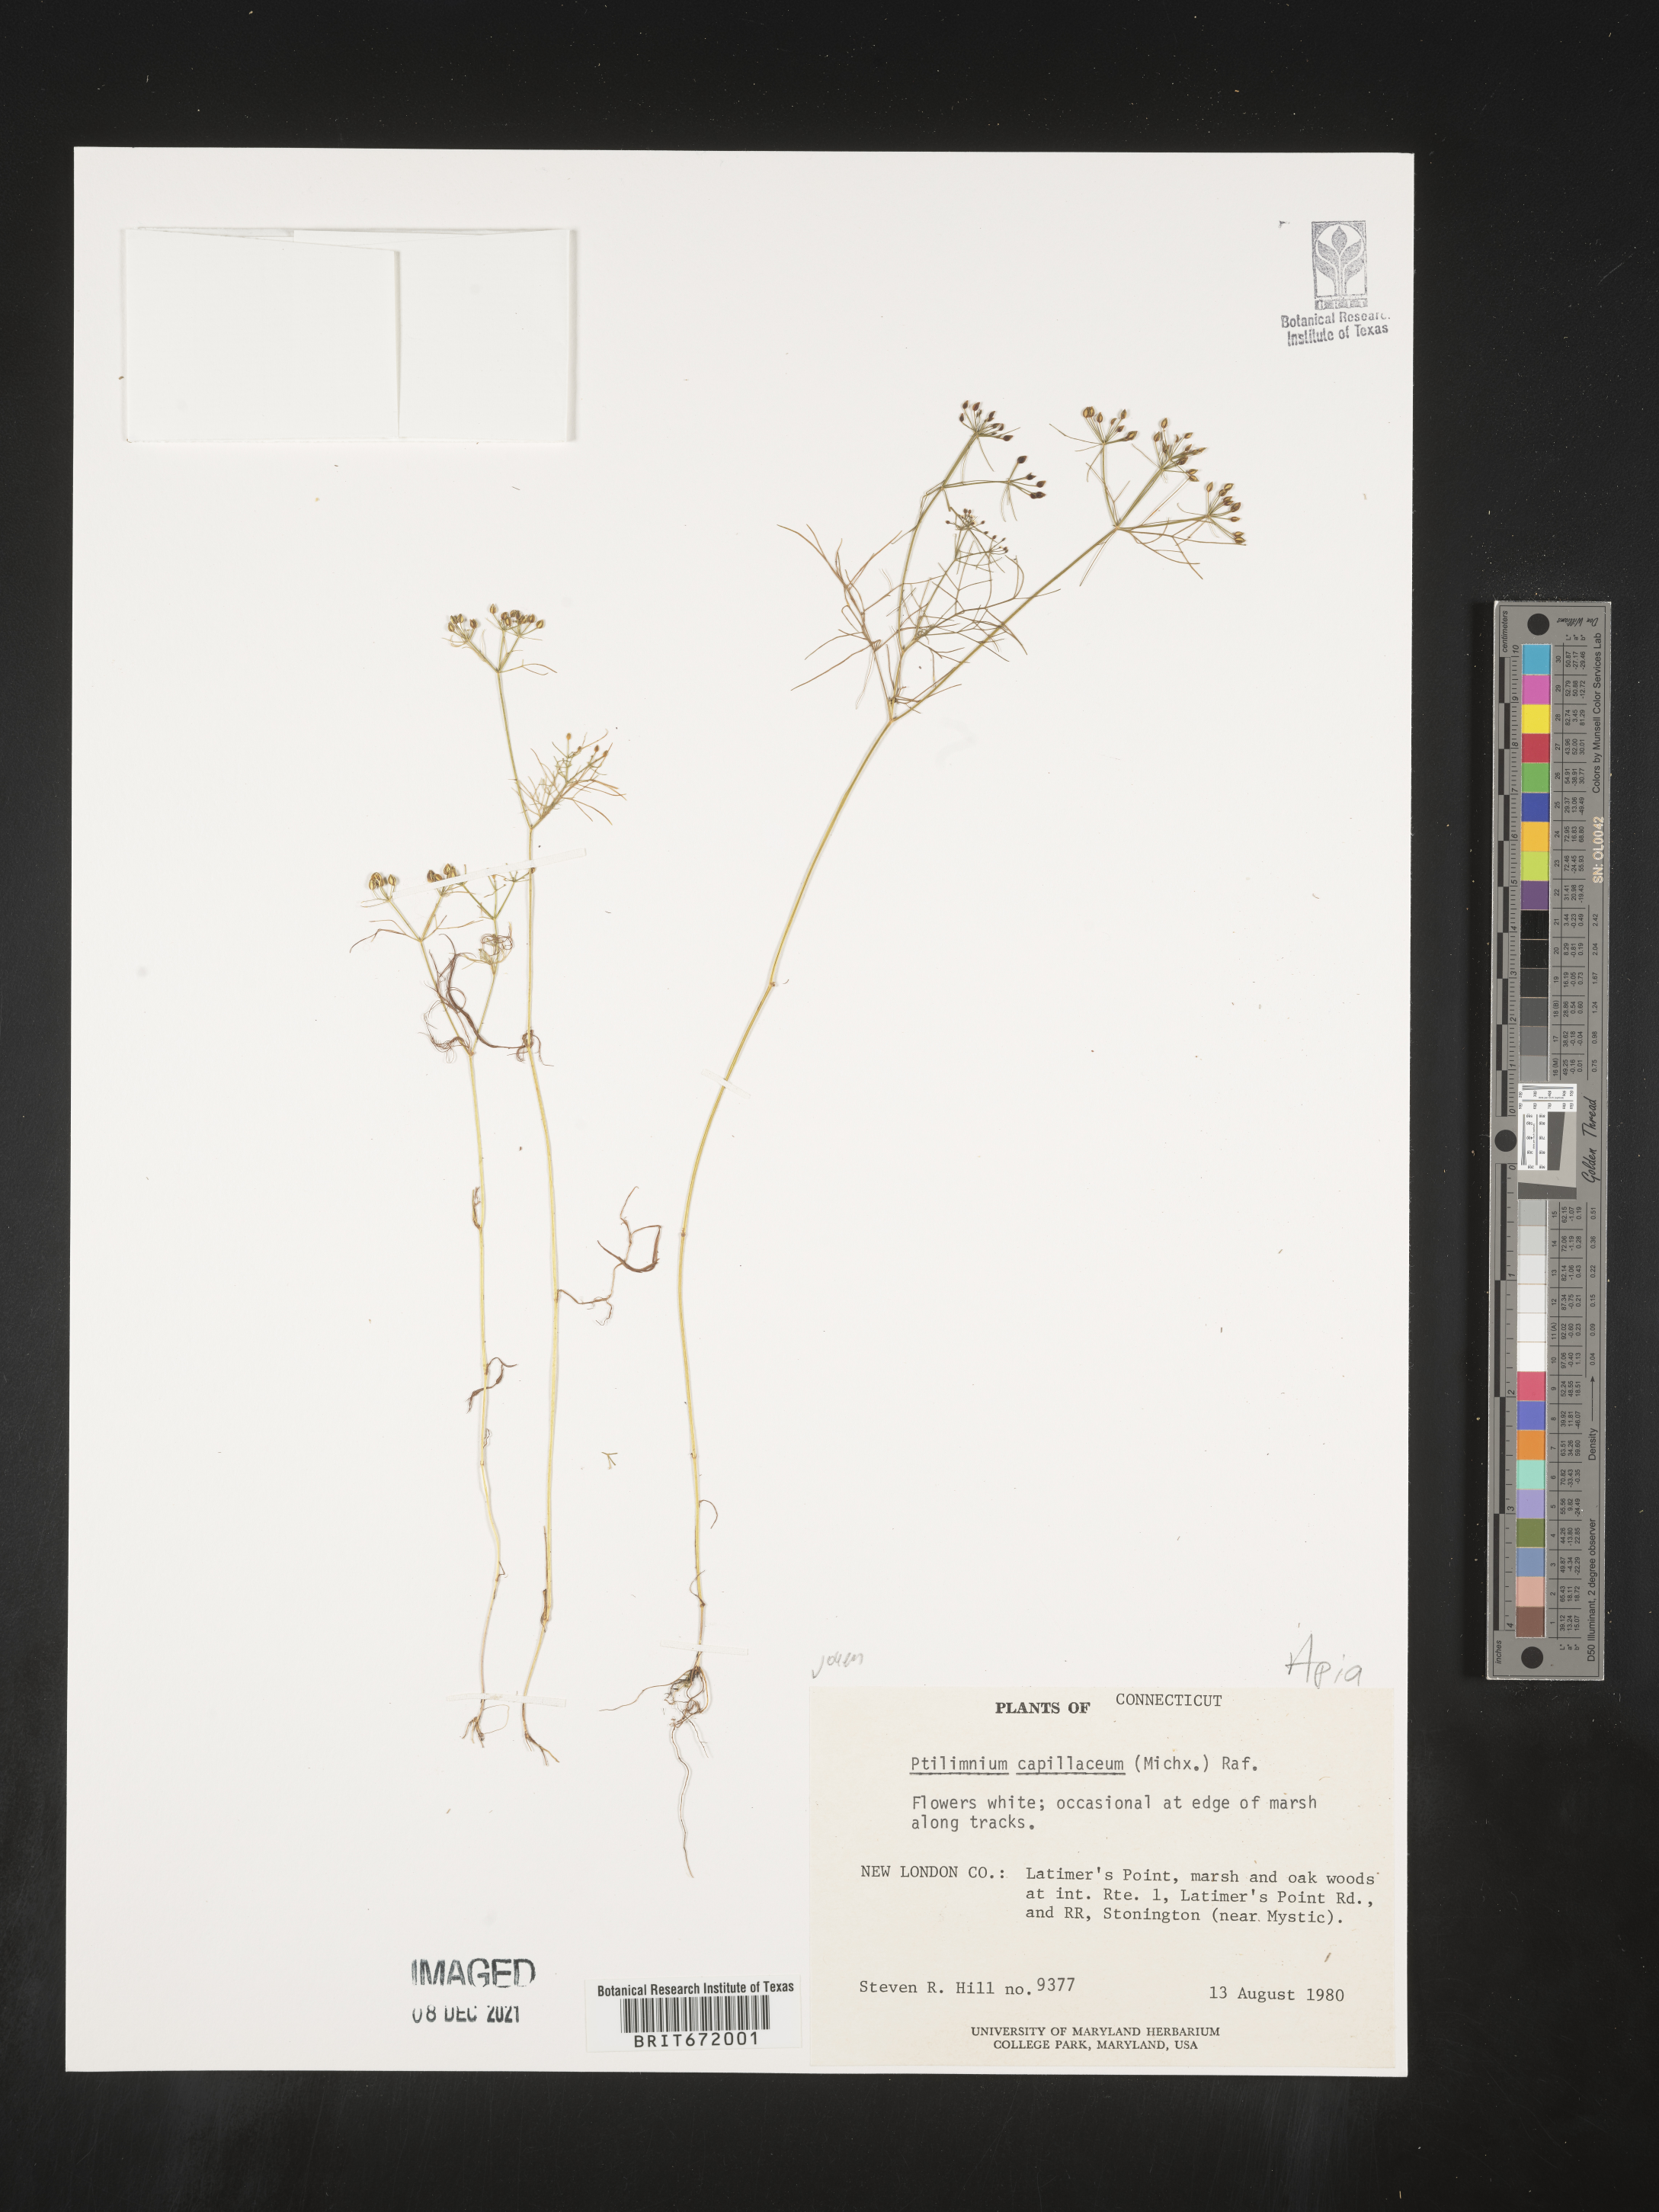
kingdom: Plantae
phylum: Tracheophyta
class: Magnoliopsida
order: Apiales
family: Apiaceae
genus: Ptilimnium
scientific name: Ptilimnium capillaceum
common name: Herbwilliam
